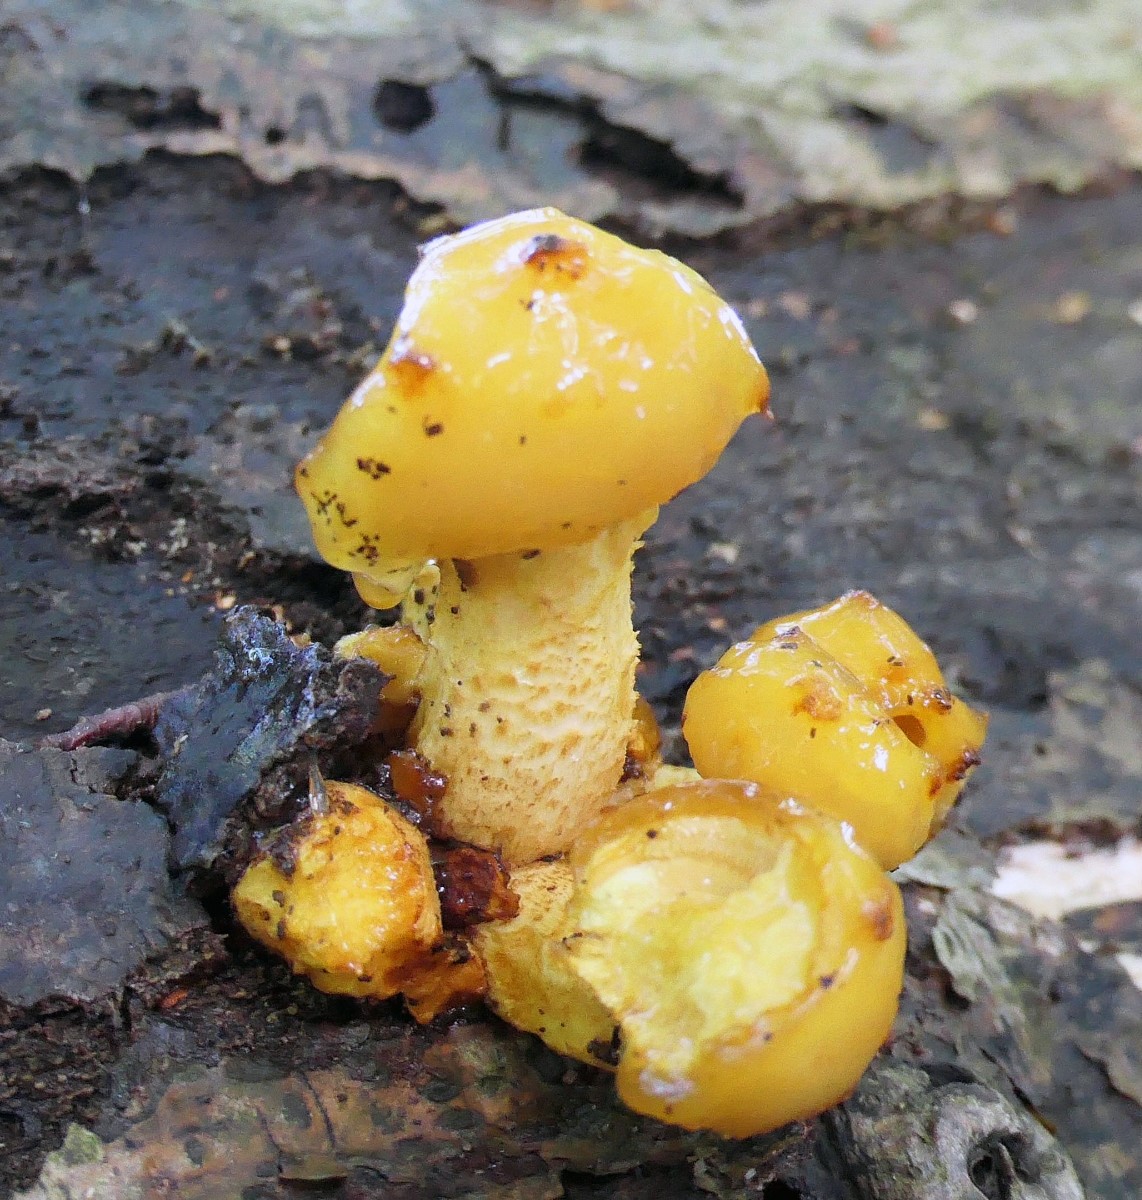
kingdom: Fungi
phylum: Basidiomycota
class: Agaricomycetes
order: Agaricales
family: Strophariaceae
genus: Pholiota
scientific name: Pholiota adiposa
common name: højtsiddende skælhat
